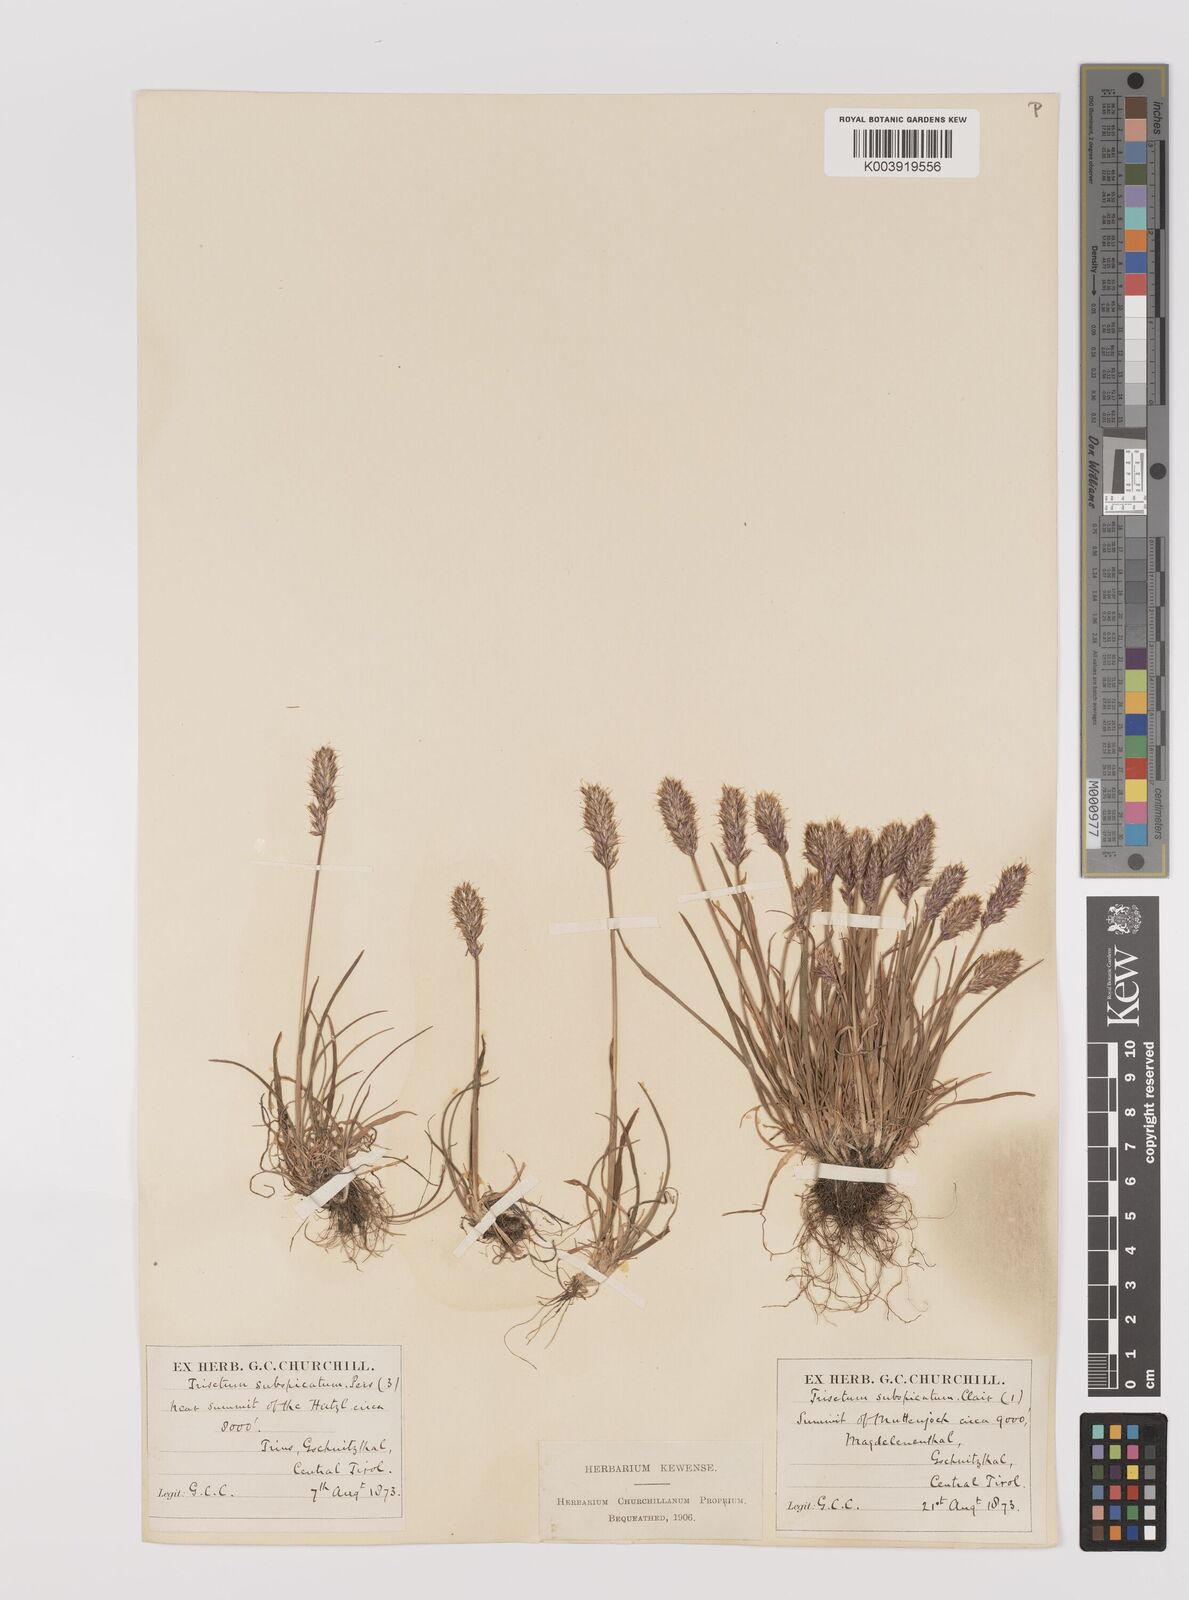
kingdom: Plantae
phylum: Tracheophyta
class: Liliopsida
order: Poales
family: Poaceae
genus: Koeleria
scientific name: Koeleria spicata
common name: Mountain trisetum
